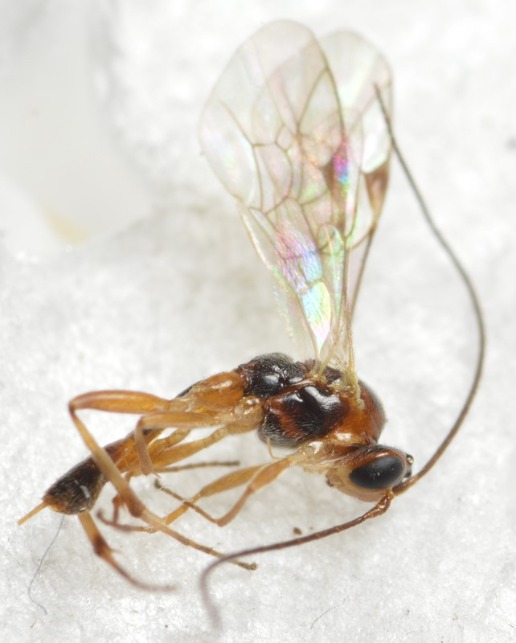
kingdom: Animalia
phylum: Arthropoda
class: Insecta
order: Hymenoptera
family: Ichneumonidae
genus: Mesochorus
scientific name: Mesochorus gemellus
